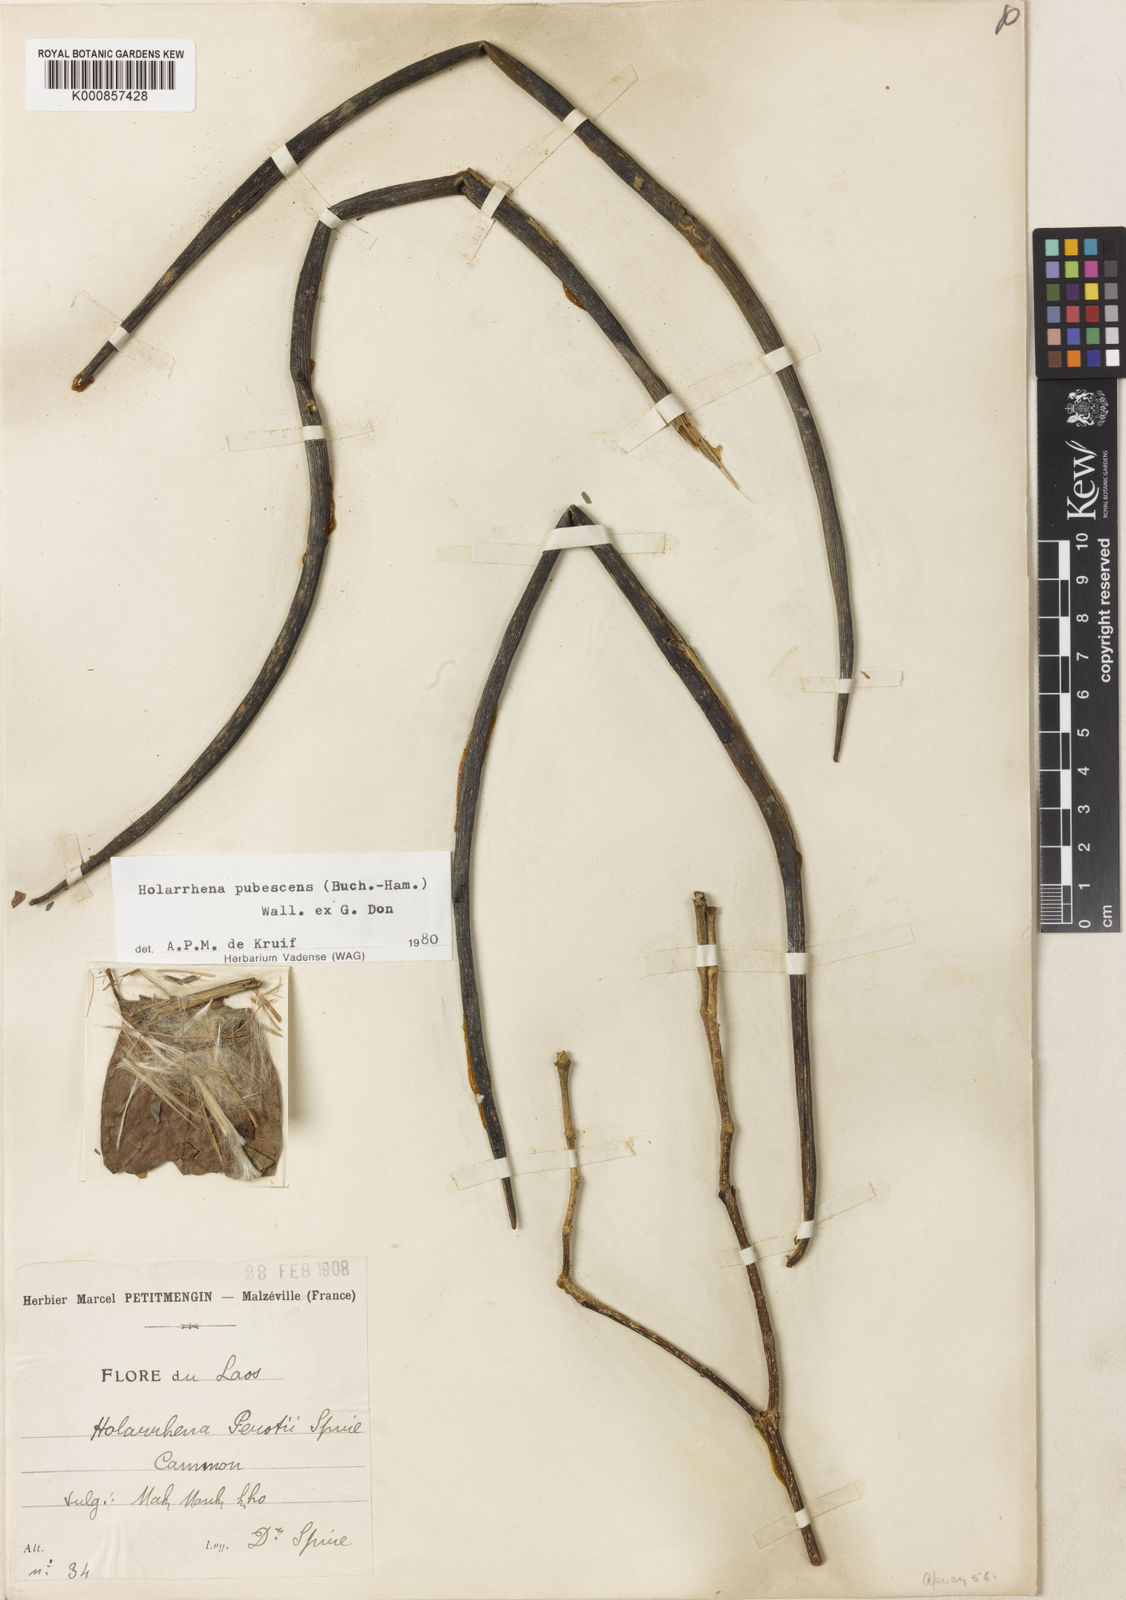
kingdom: Plantae
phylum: Tracheophyta
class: Magnoliopsida
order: Gentianales
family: Apocynaceae
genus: Holarrhena
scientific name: Holarrhena pubescens
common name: Bitter oleander
